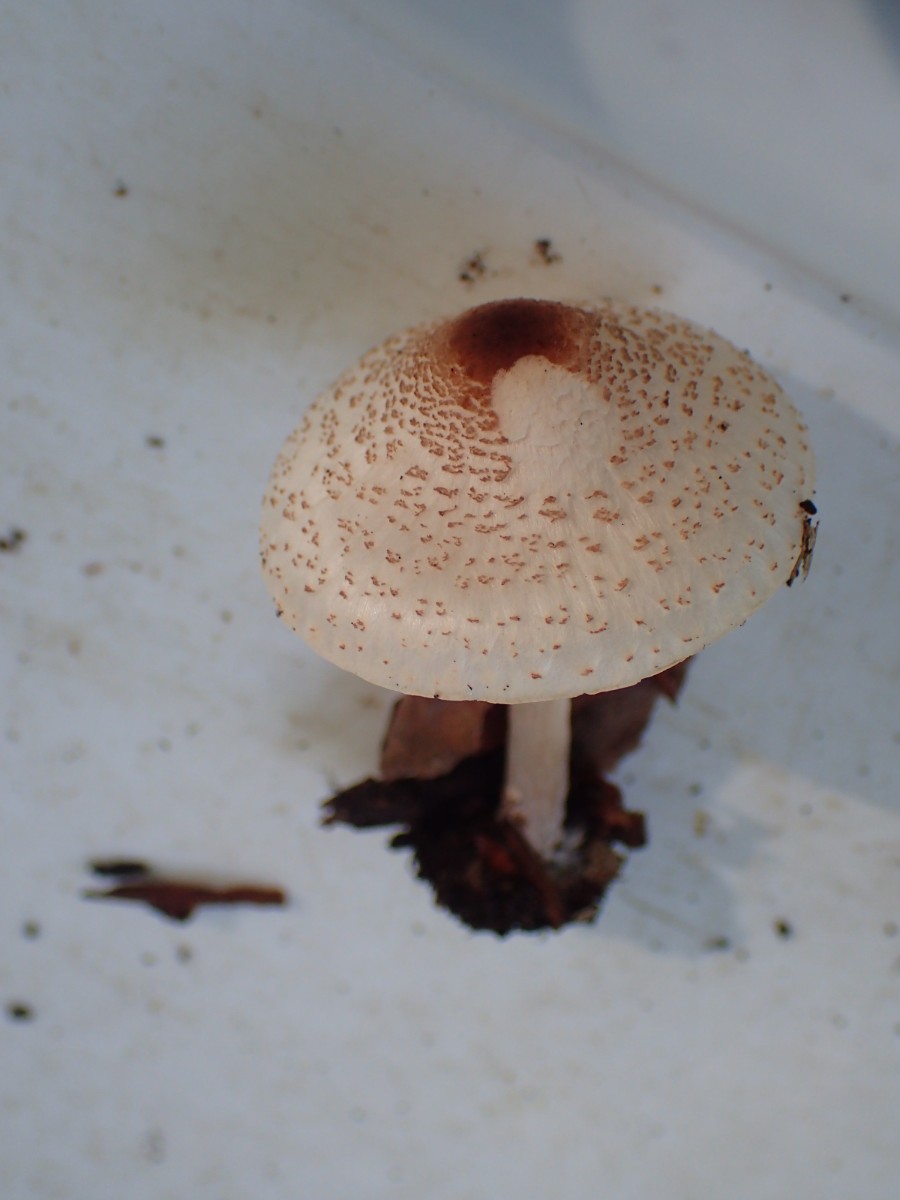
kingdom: Fungi
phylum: Basidiomycota
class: Agaricomycetes
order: Agaricales
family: Agaricaceae
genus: Lepiota
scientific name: Lepiota cristata
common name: stinkende parasolhat
